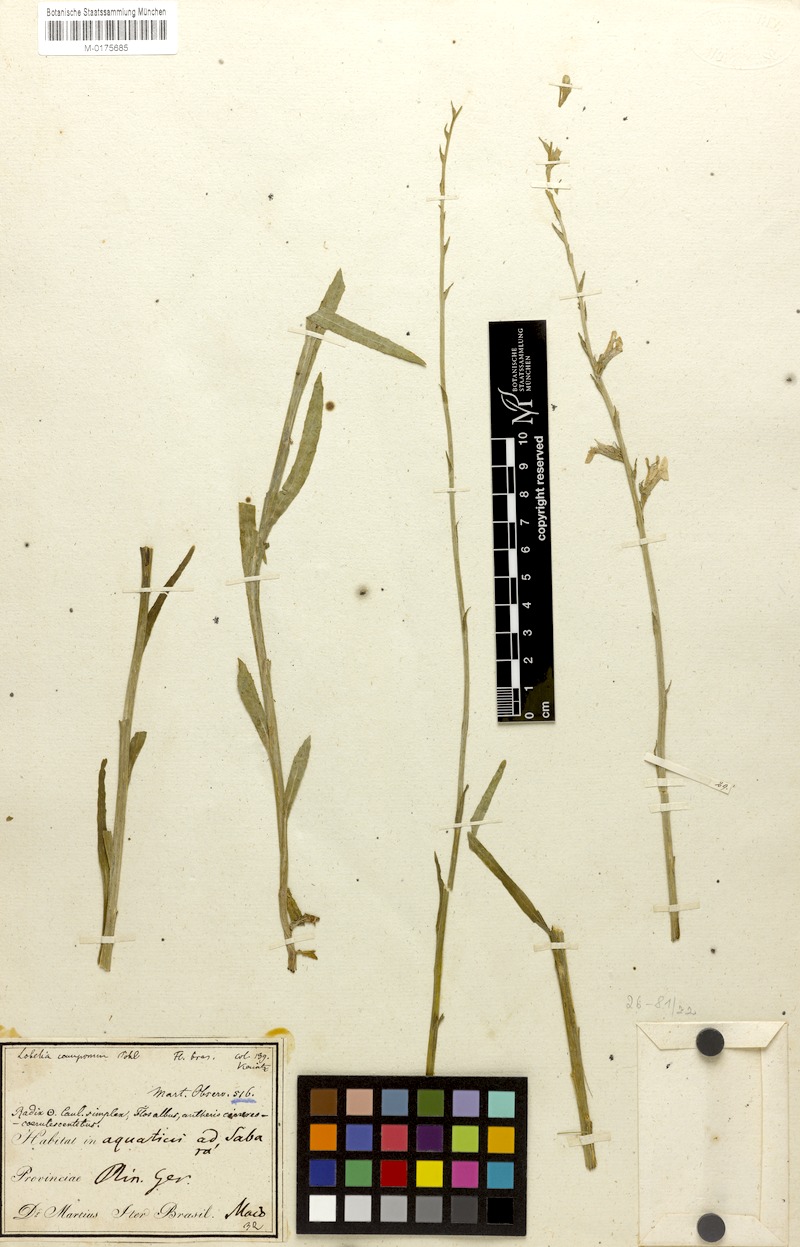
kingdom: Plantae
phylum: Tracheophyta
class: Magnoliopsida
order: Asterales
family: Campanulaceae
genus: Lobelia
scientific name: Lobelia camporum
